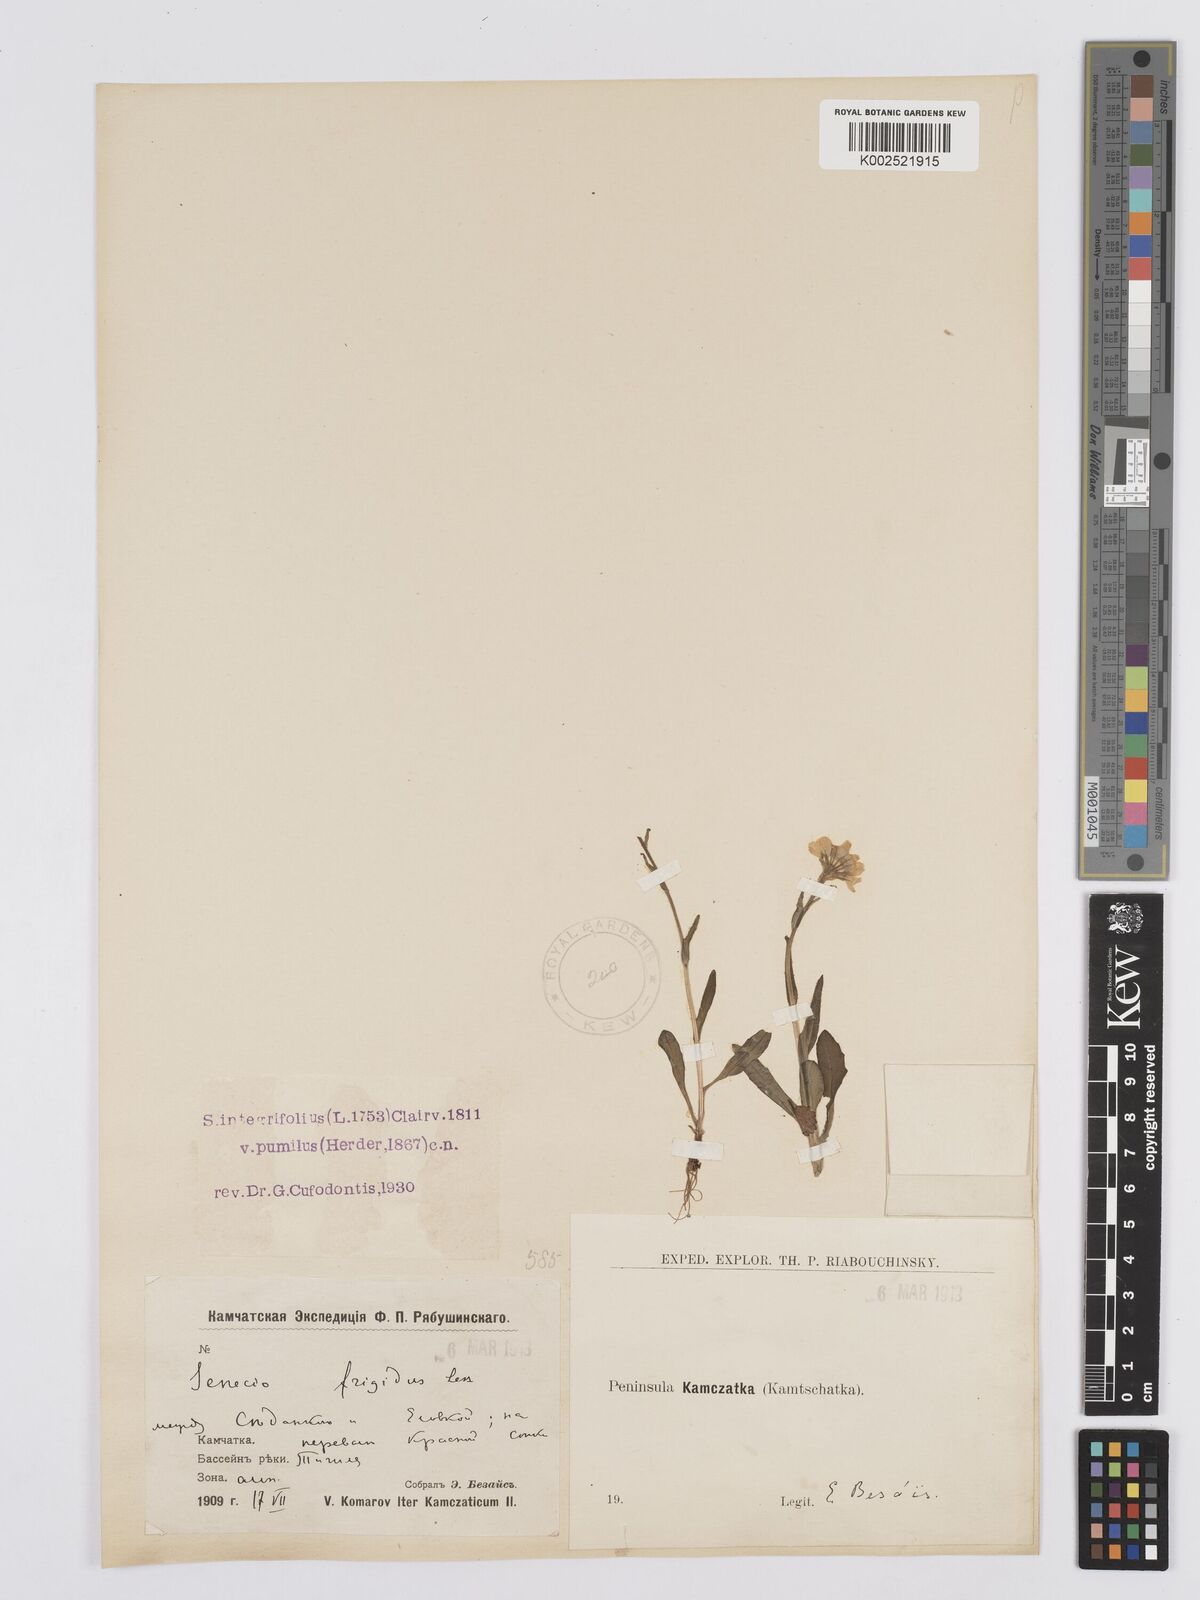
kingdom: Plantae
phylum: Tracheophyta
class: Magnoliopsida
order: Asterales
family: Asteraceae
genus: Tephroseris
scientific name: Tephroseris
